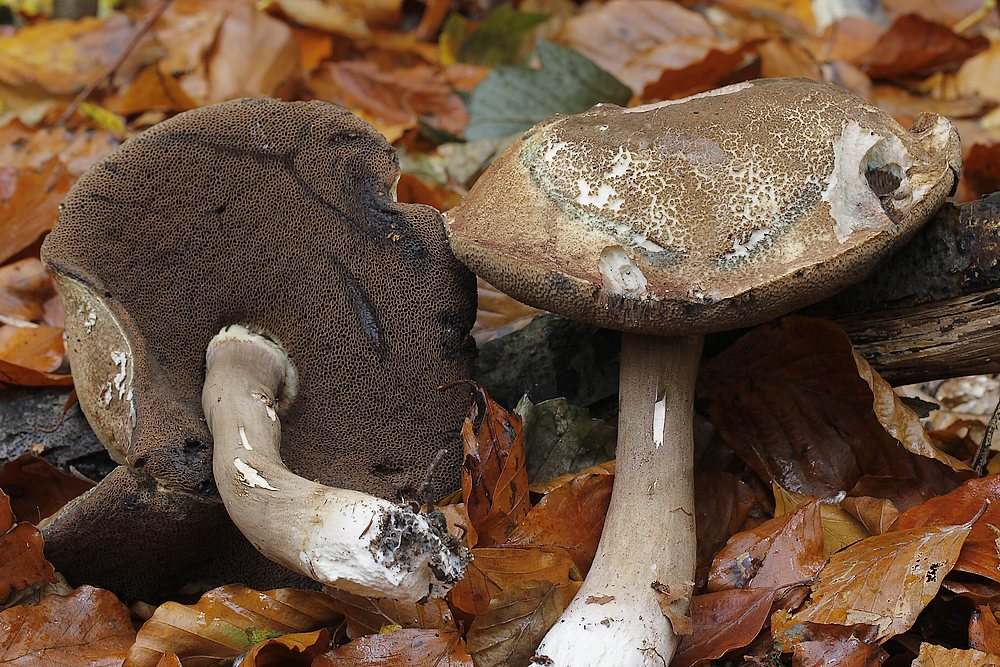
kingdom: Fungi
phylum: Basidiomycota
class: Agaricomycetes
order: Boletales
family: Boletaceae
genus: Porphyrellus
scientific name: Porphyrellus porphyrosporus
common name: sodrørhat
